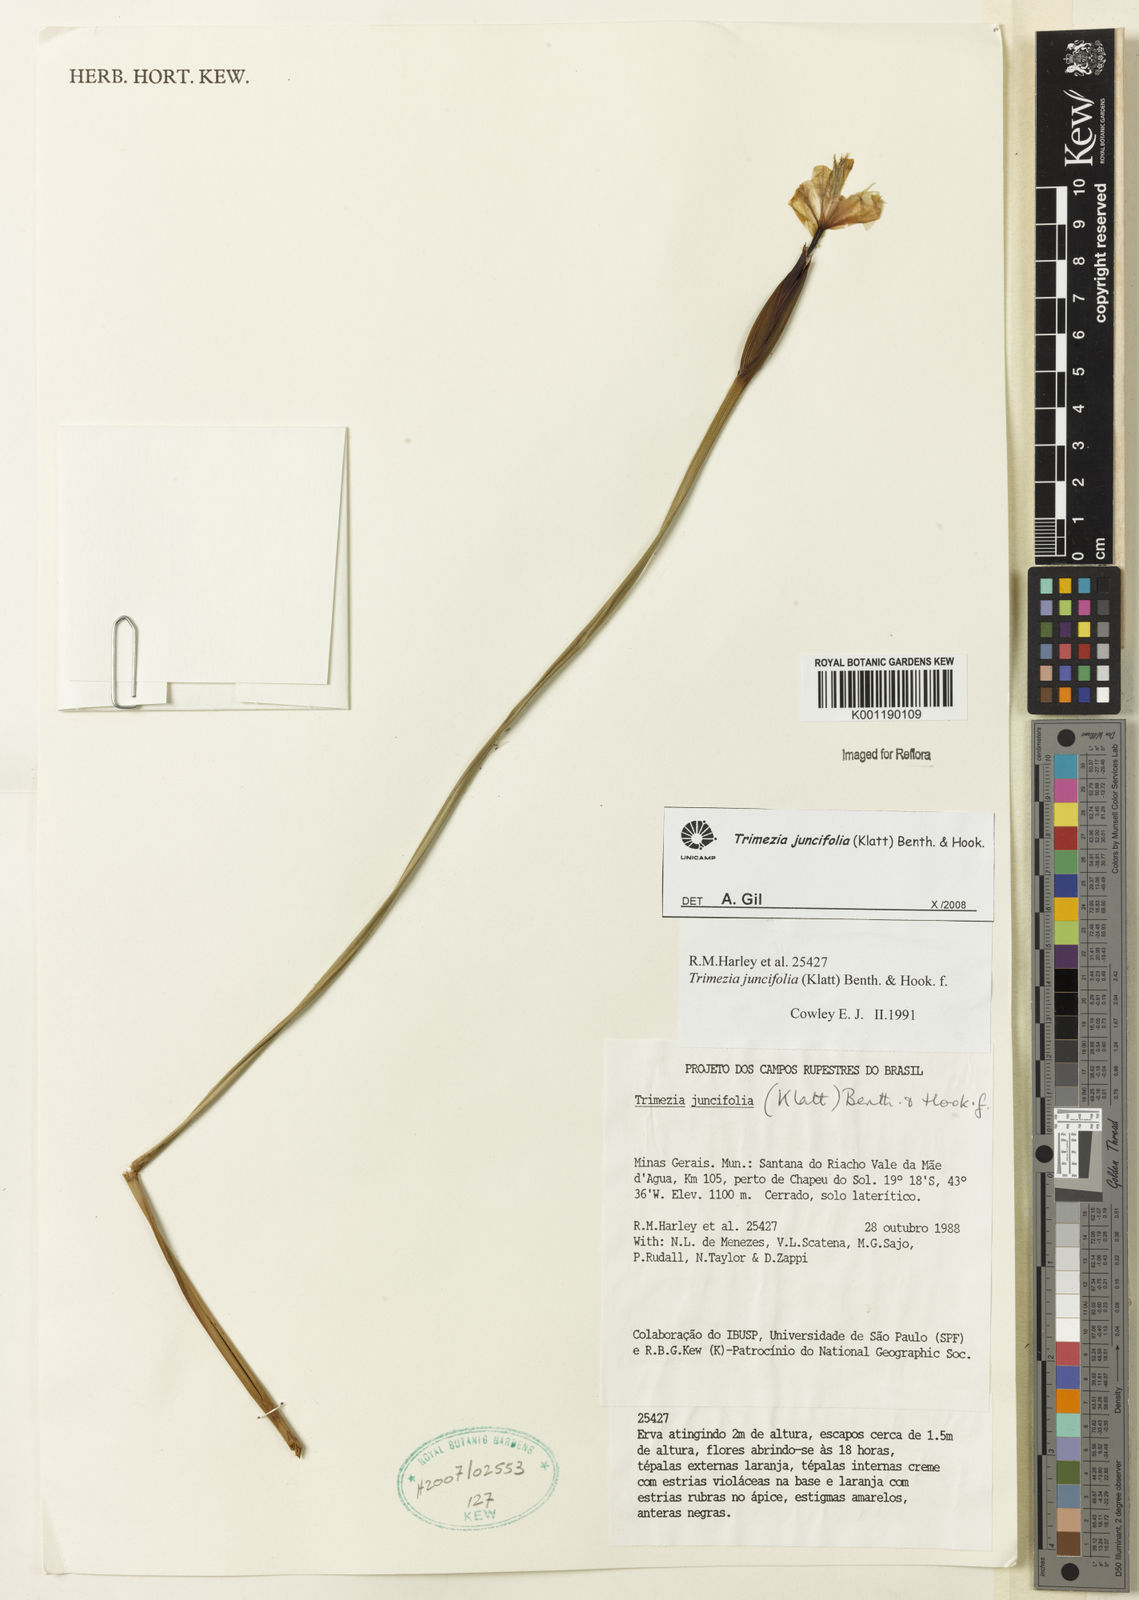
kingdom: Plantae
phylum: Tracheophyta
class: Liliopsida
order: Asparagales
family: Iridaceae
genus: Trimezia
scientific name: Trimezia juncifolia
